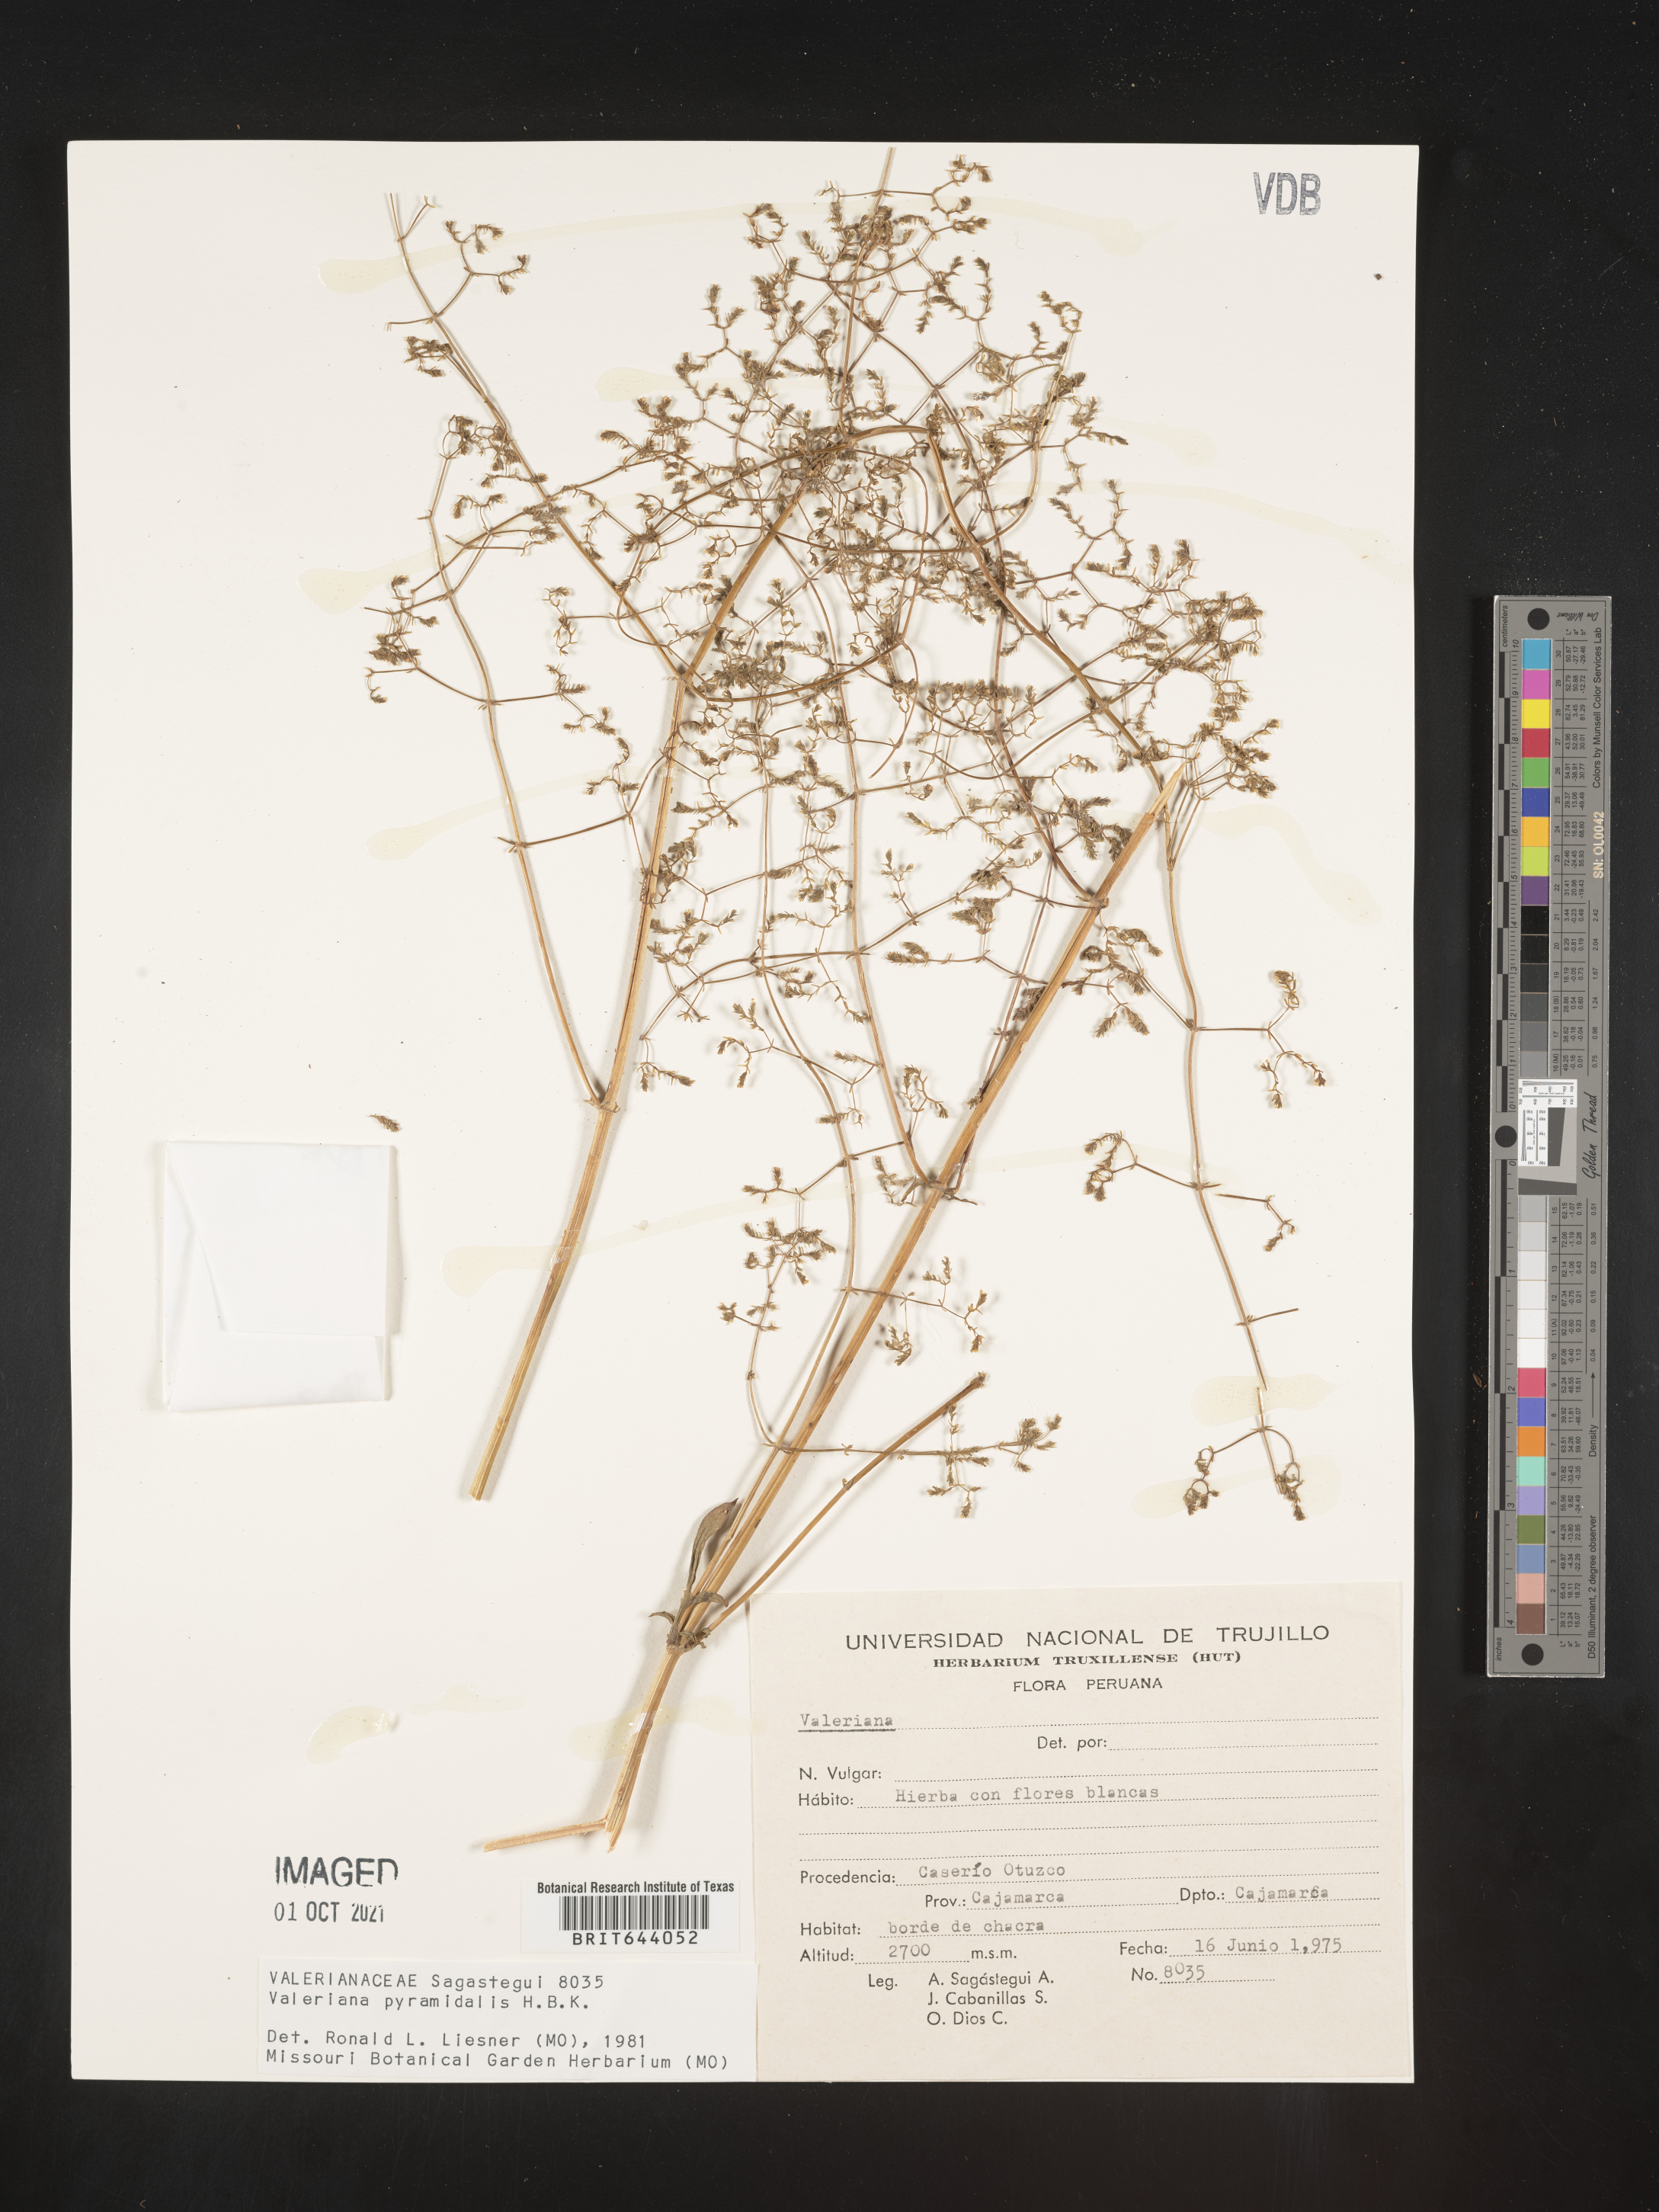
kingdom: Plantae
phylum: Tracheophyta
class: Magnoliopsida
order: Dipsacales
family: Caprifoliaceae
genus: Valeriana
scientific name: Valeriana pyramidalis
